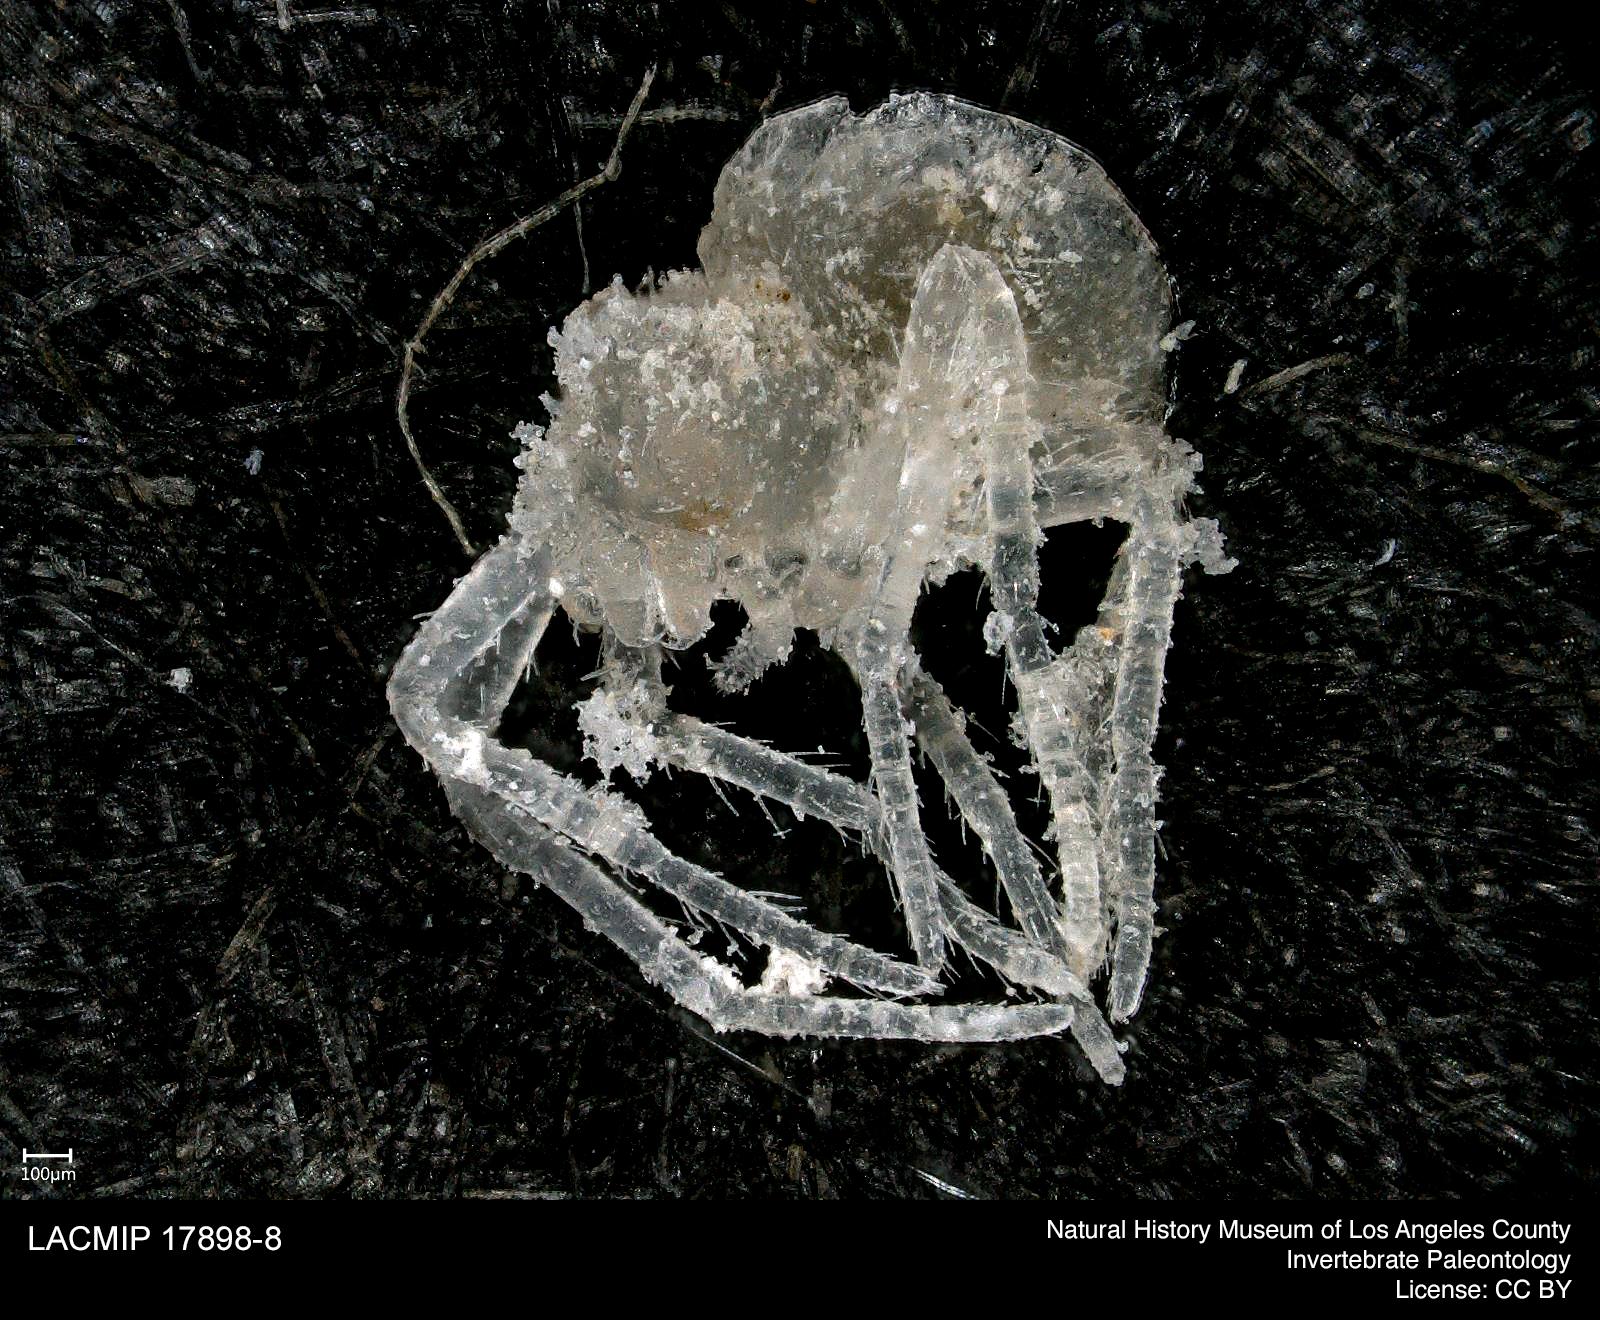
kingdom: Animalia
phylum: Arthropoda
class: Arachnida
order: Araneae
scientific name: Araneae
